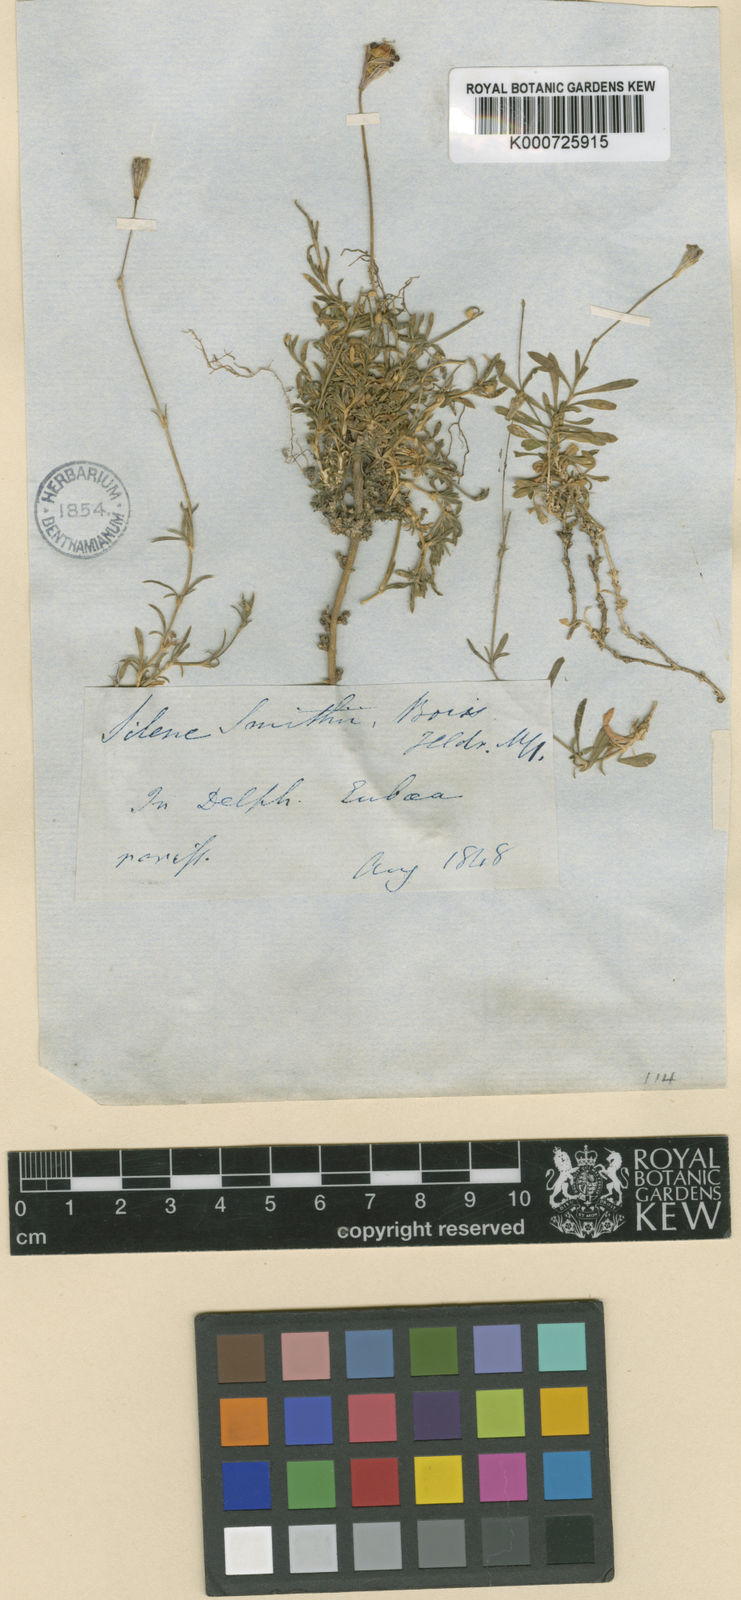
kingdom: Plantae
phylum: Tracheophyta
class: Magnoliopsida
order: Caryophyllales
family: Caryophyllaceae
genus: Silene
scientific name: Silene
